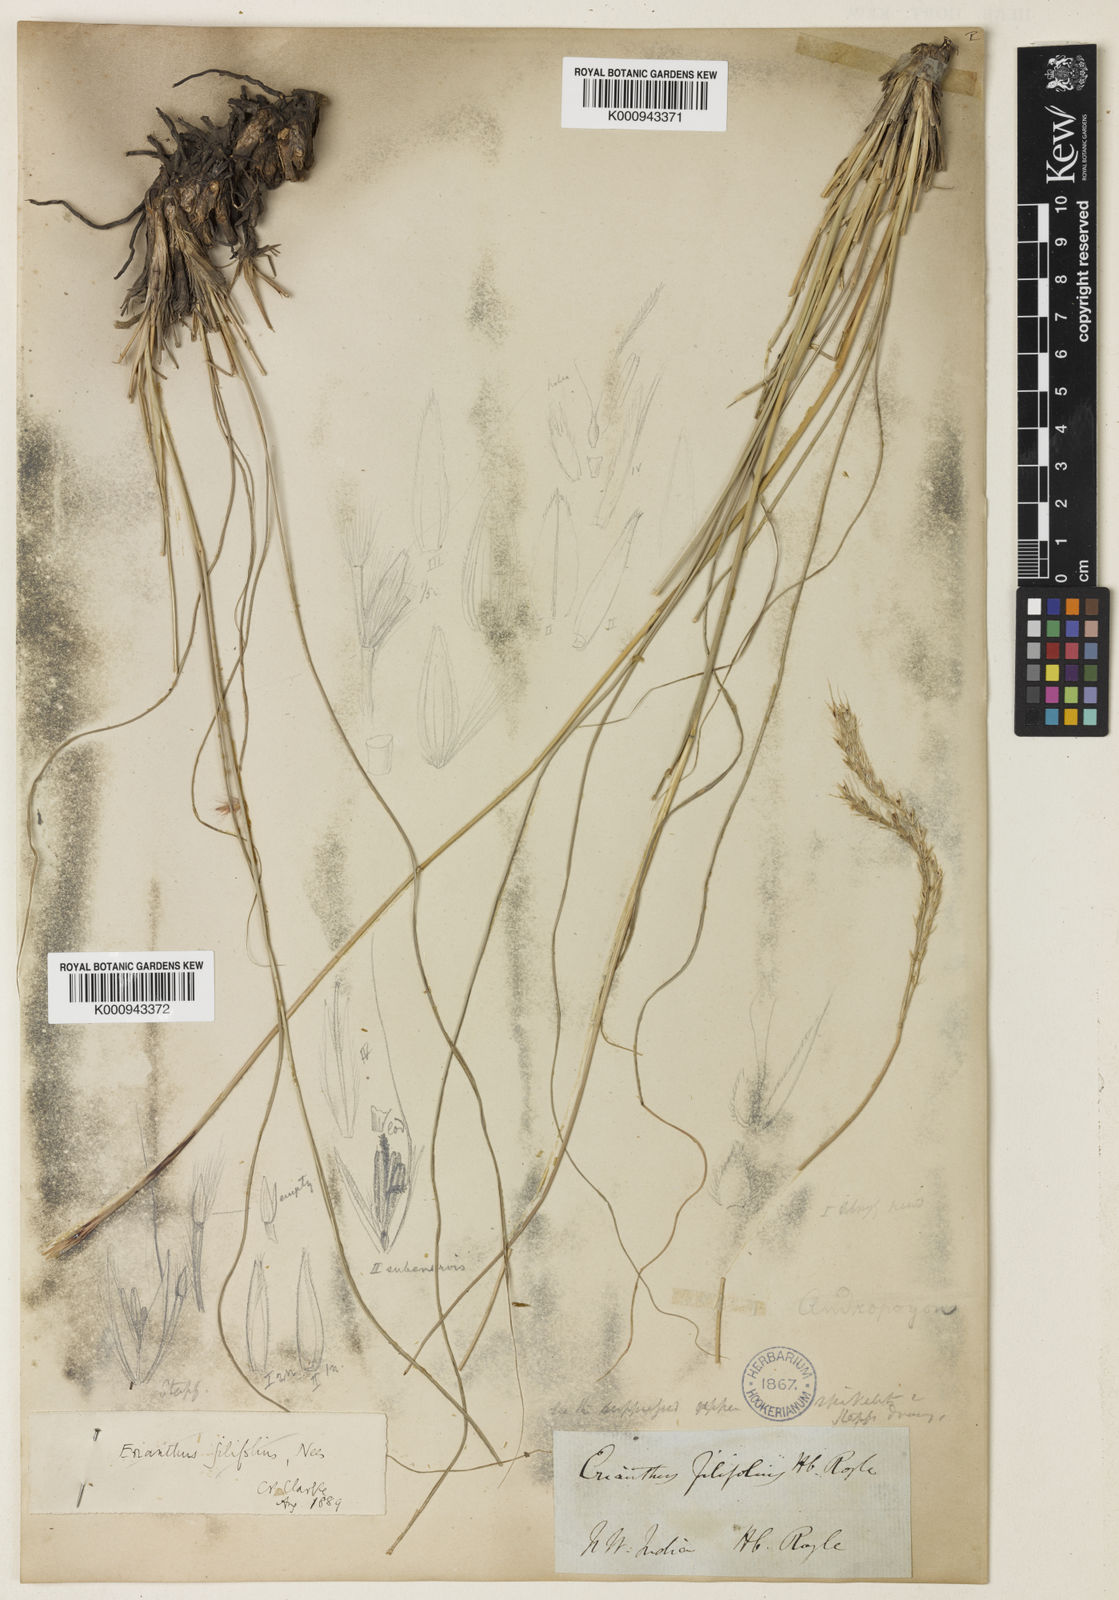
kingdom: Plantae
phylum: Tracheophyta
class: Liliopsida
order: Poales
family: Poaceae
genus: Saccharum
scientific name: Saccharum filifolium
